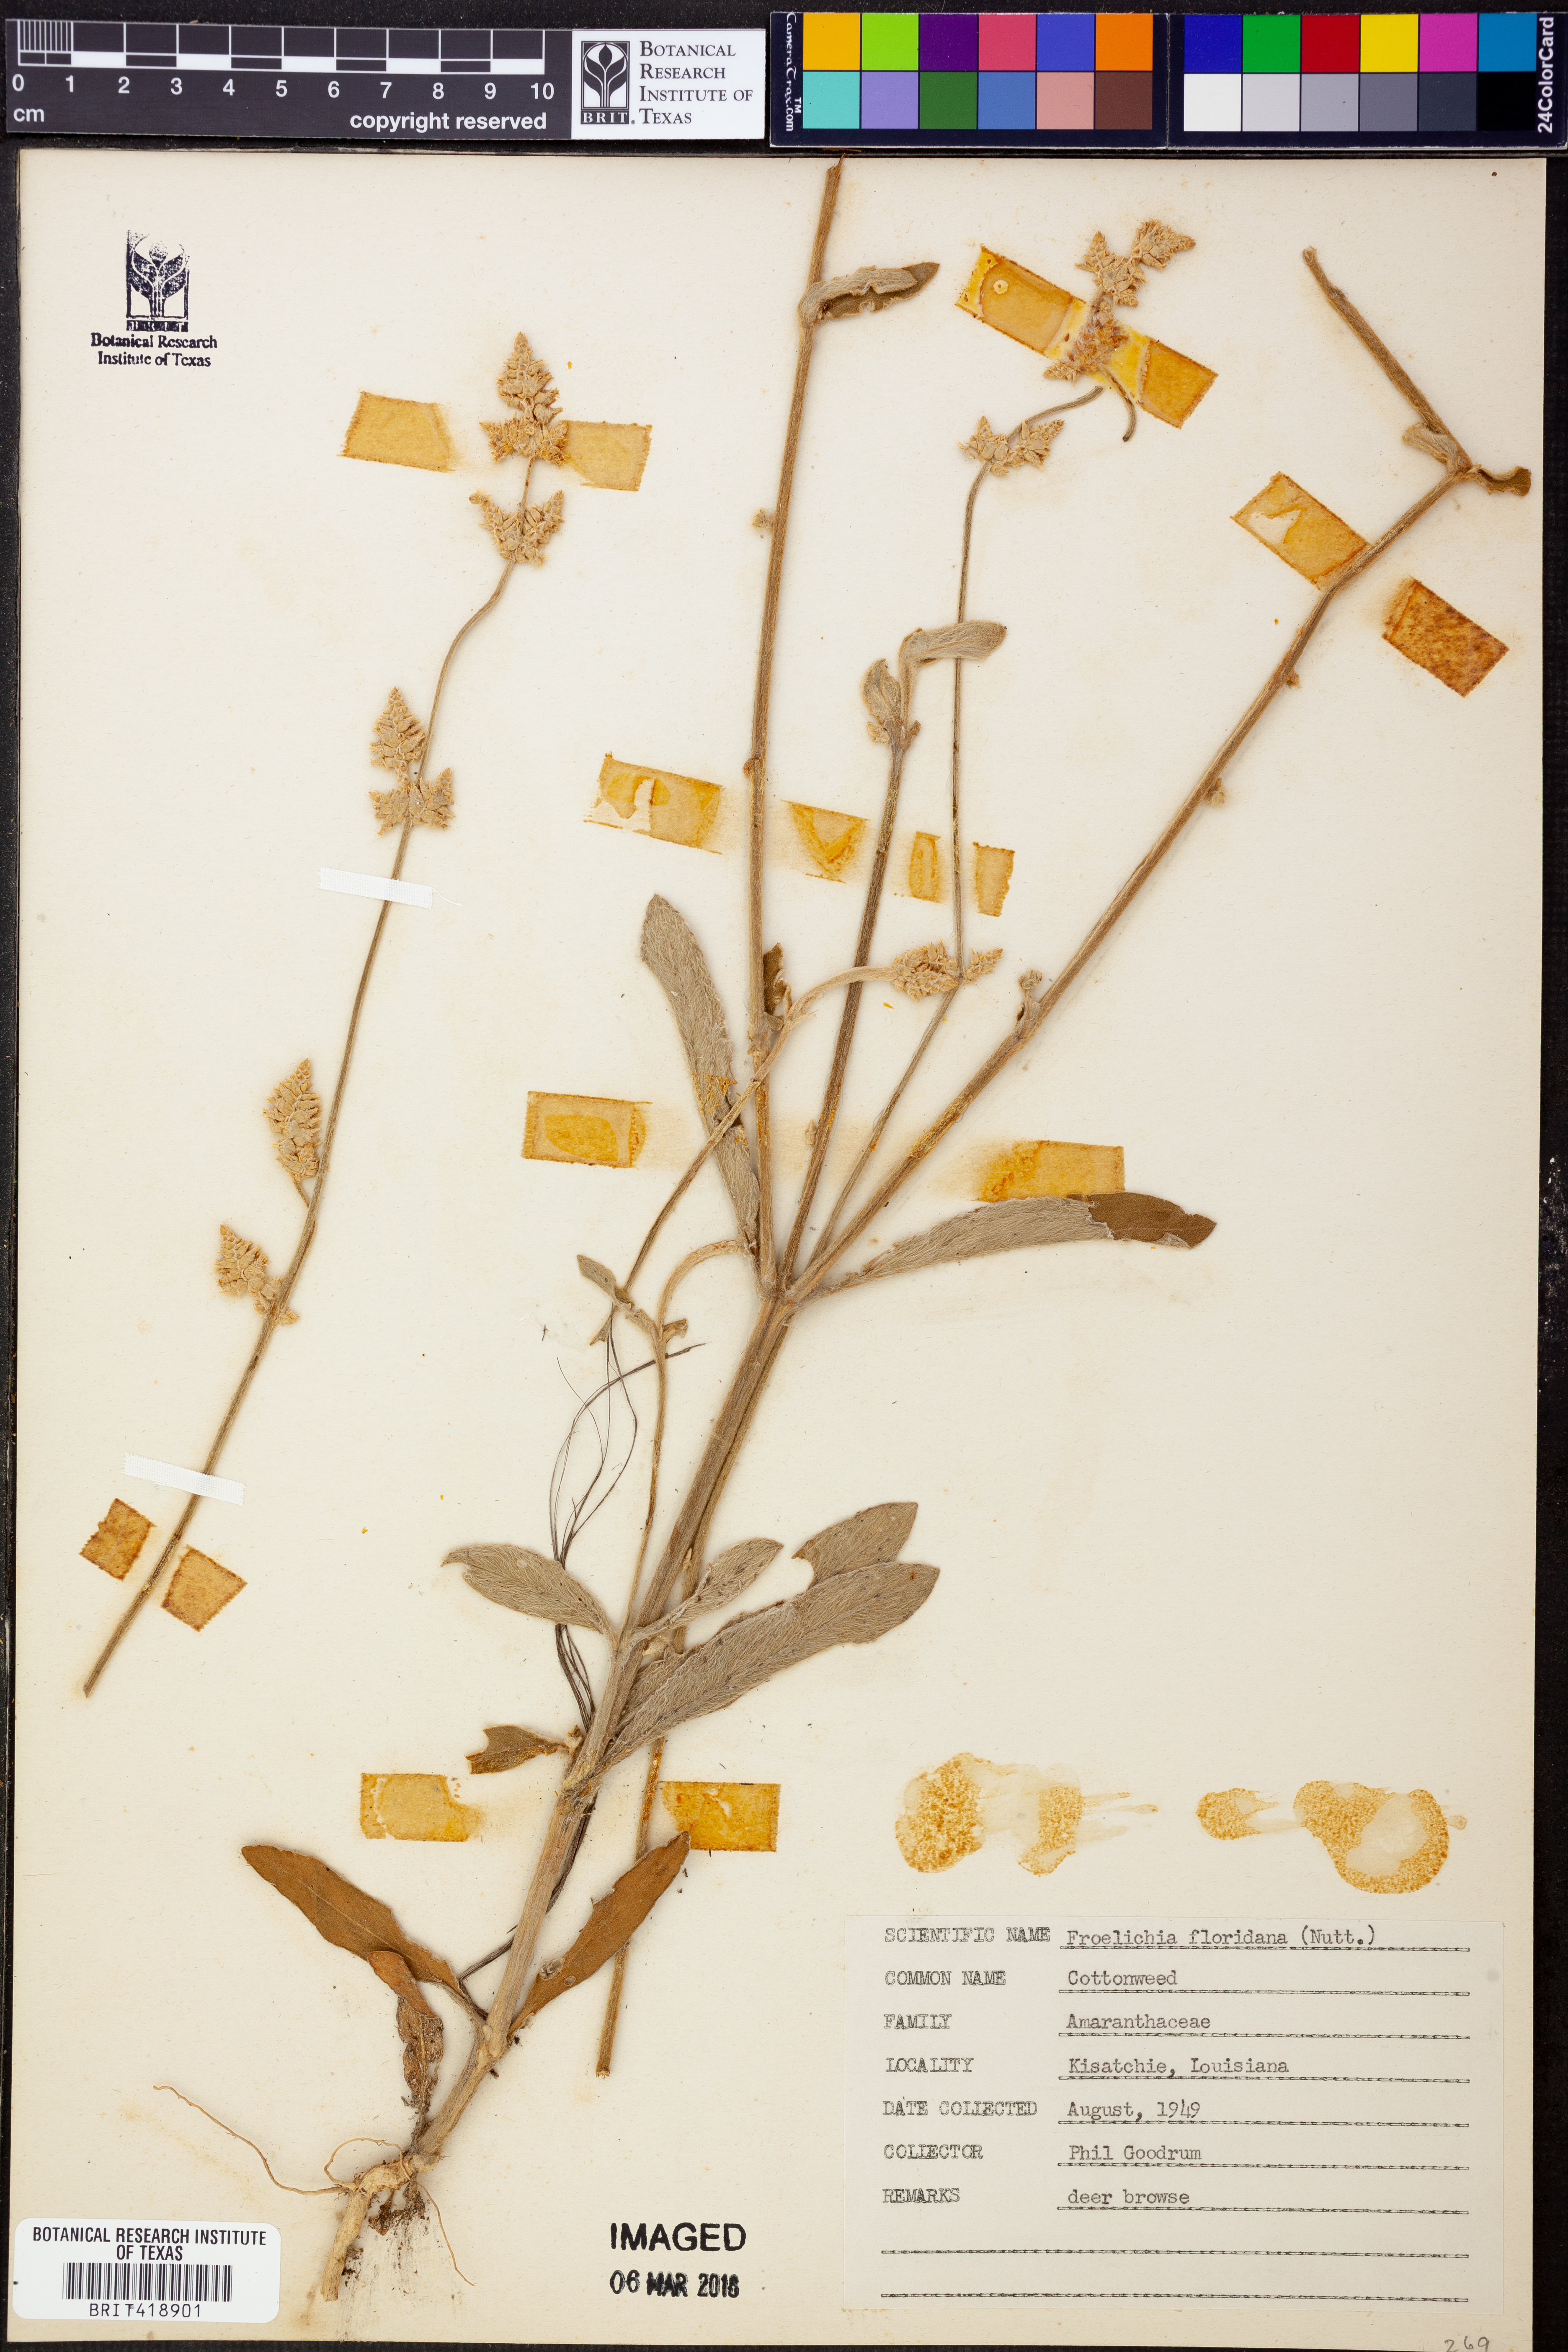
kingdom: Plantae
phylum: Tracheophyta
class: Magnoliopsida
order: Caryophyllales
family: Amaranthaceae
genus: Froelichia
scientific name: Froelichia floridana
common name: Florida snake-cotton
